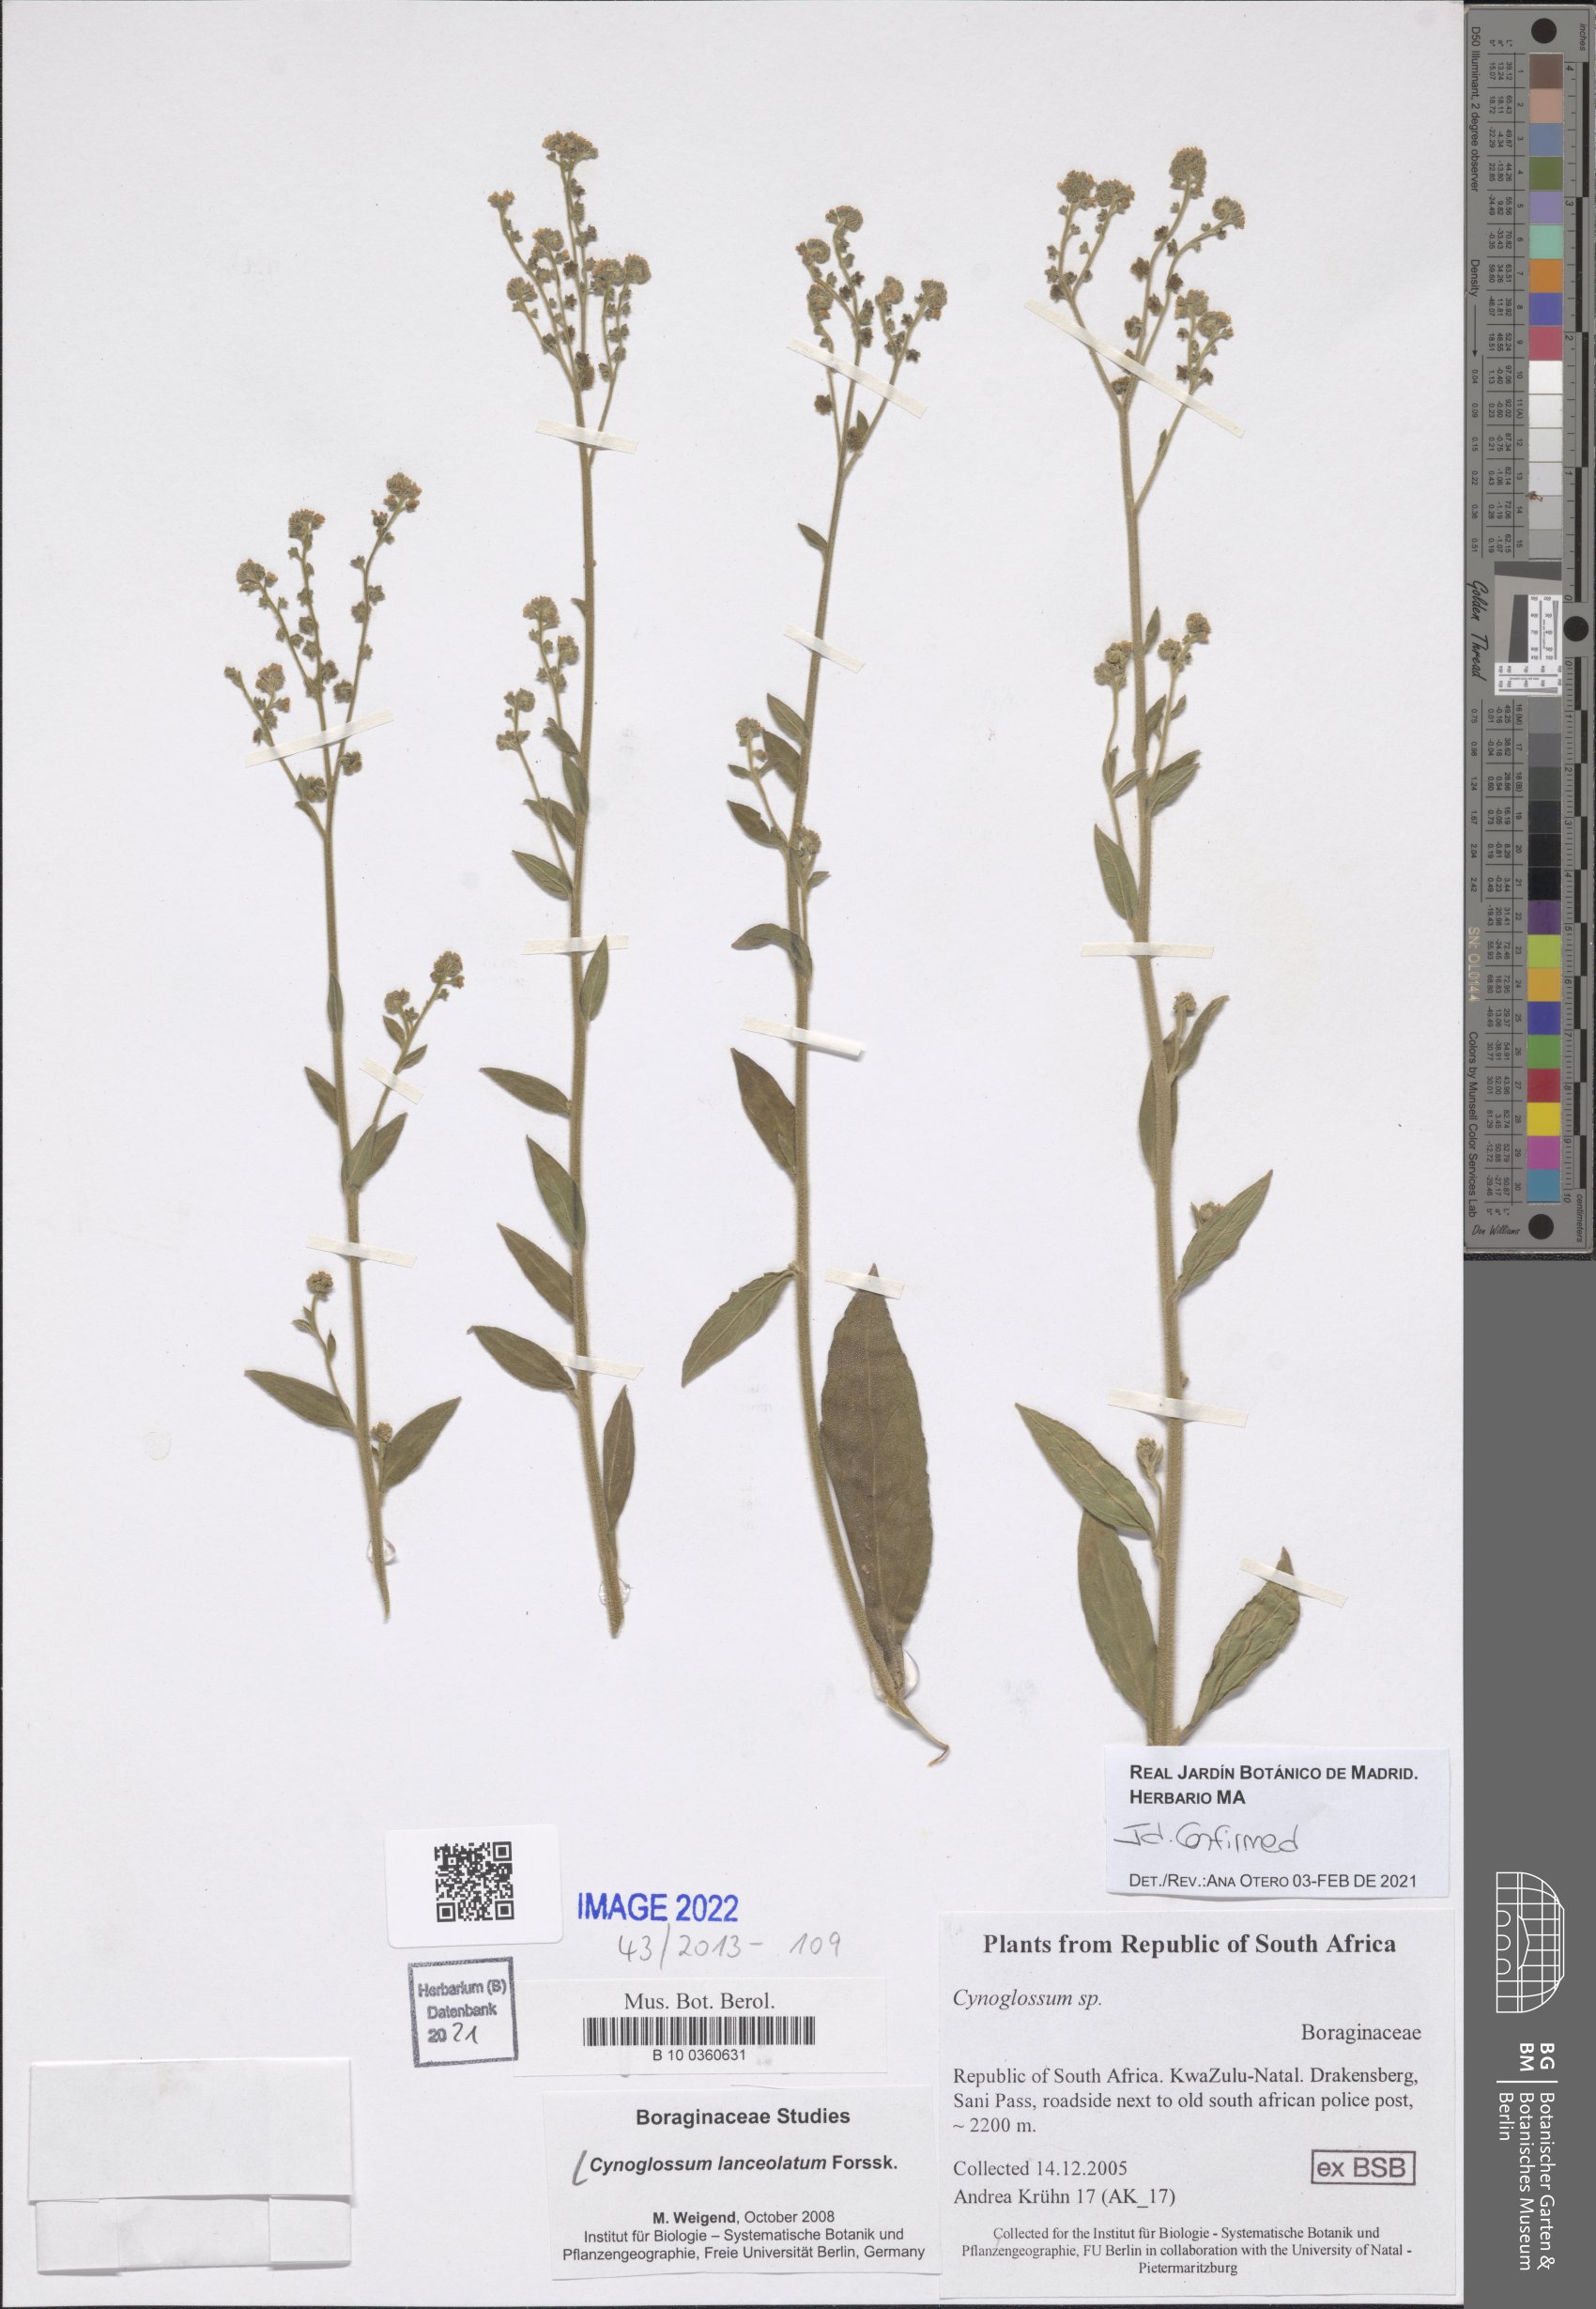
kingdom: Plantae
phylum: Tracheophyta
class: Magnoliopsida
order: Boraginales
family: Boraginaceae
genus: Paracynoglossum
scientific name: Paracynoglossum lanceolatum
